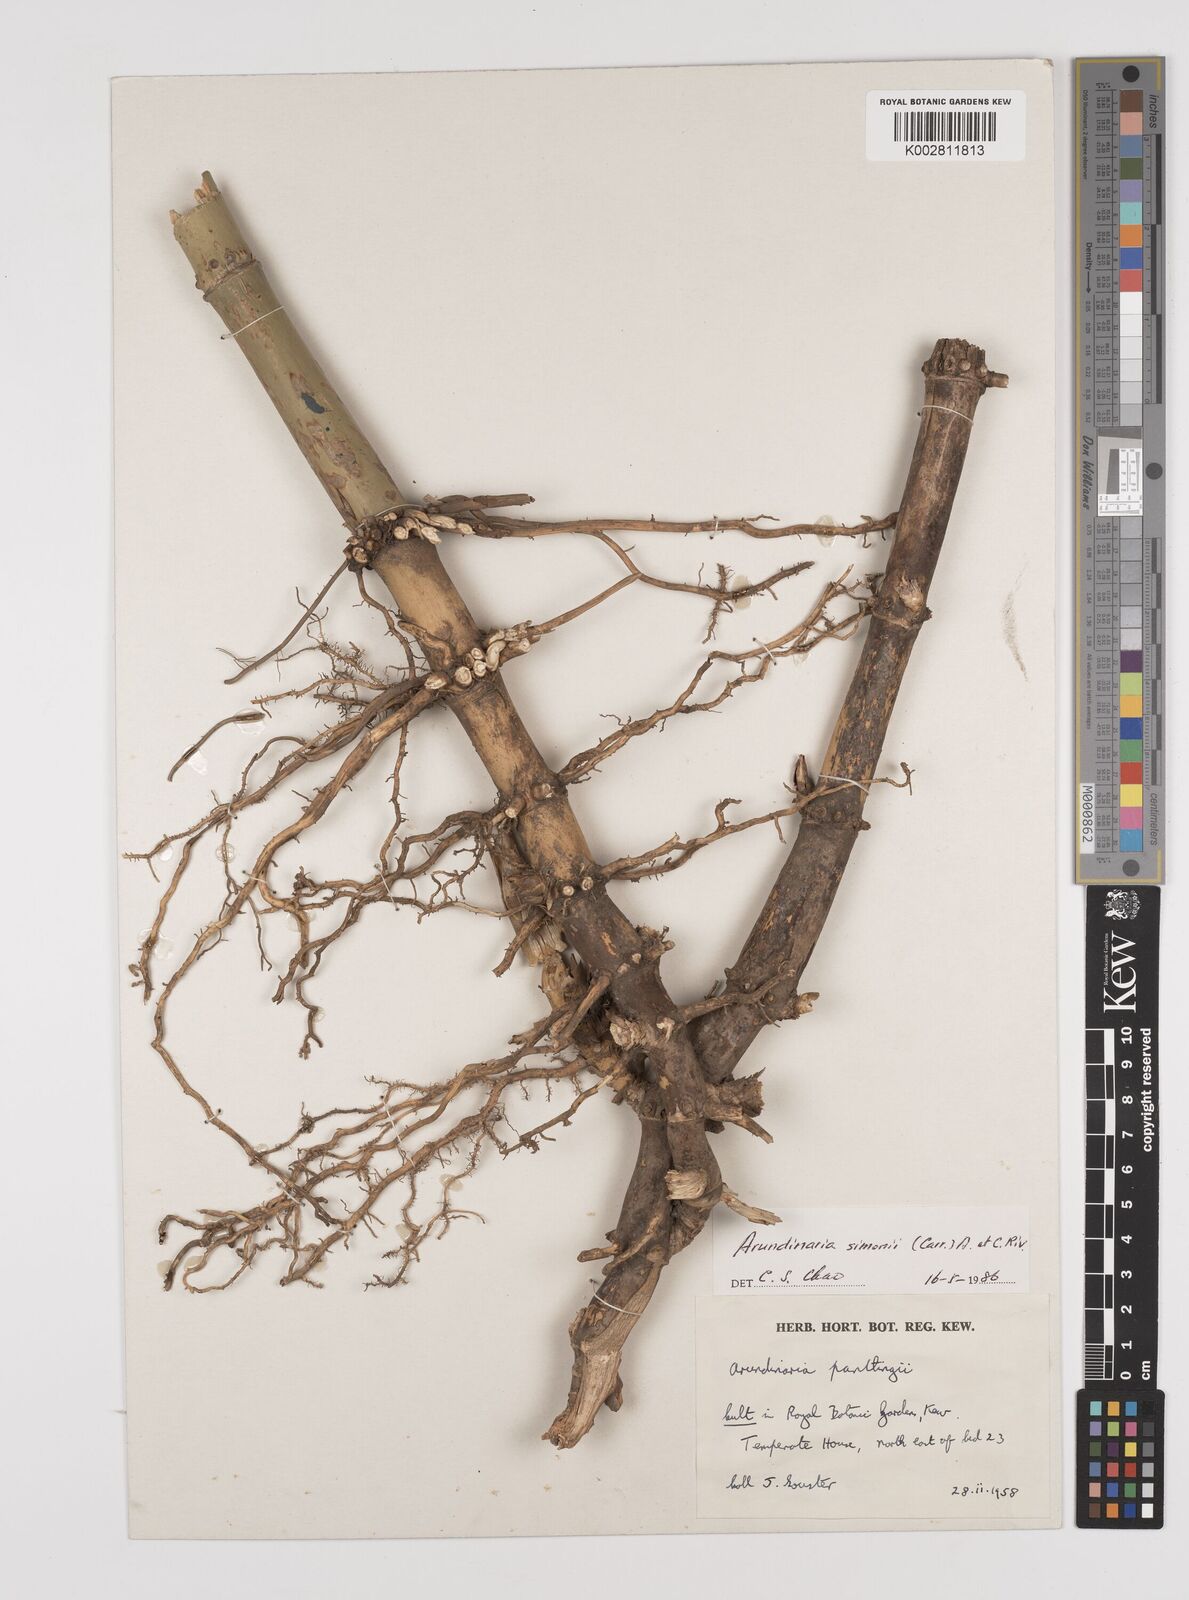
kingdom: Plantae
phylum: Tracheophyta
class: Liliopsida
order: Poales
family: Poaceae
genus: Pleioblastus
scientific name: Pleioblastus simonii
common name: Simon bamboo
